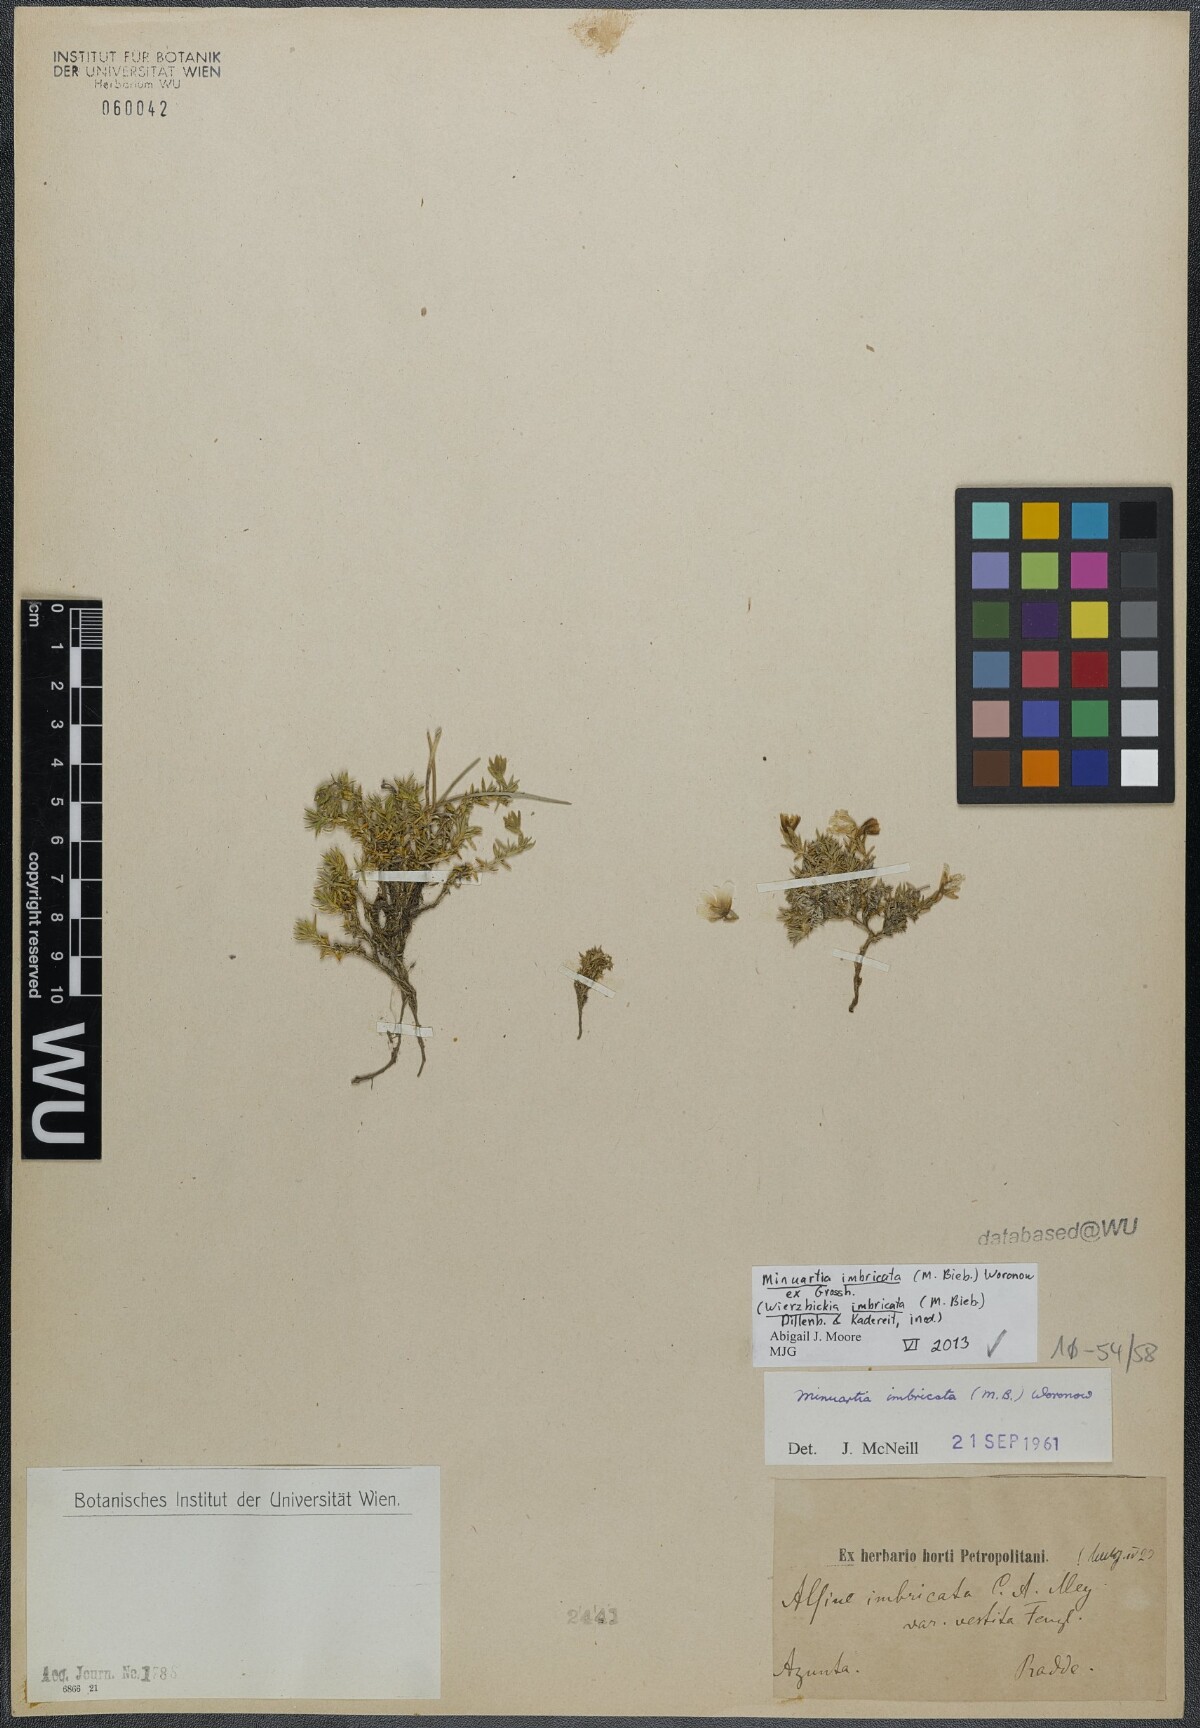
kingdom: Plantae
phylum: Tracheophyta
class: Magnoliopsida
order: Caryophyllales
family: Caryophyllaceae
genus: Pseudocherleria
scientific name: Pseudocherleria imbricata
